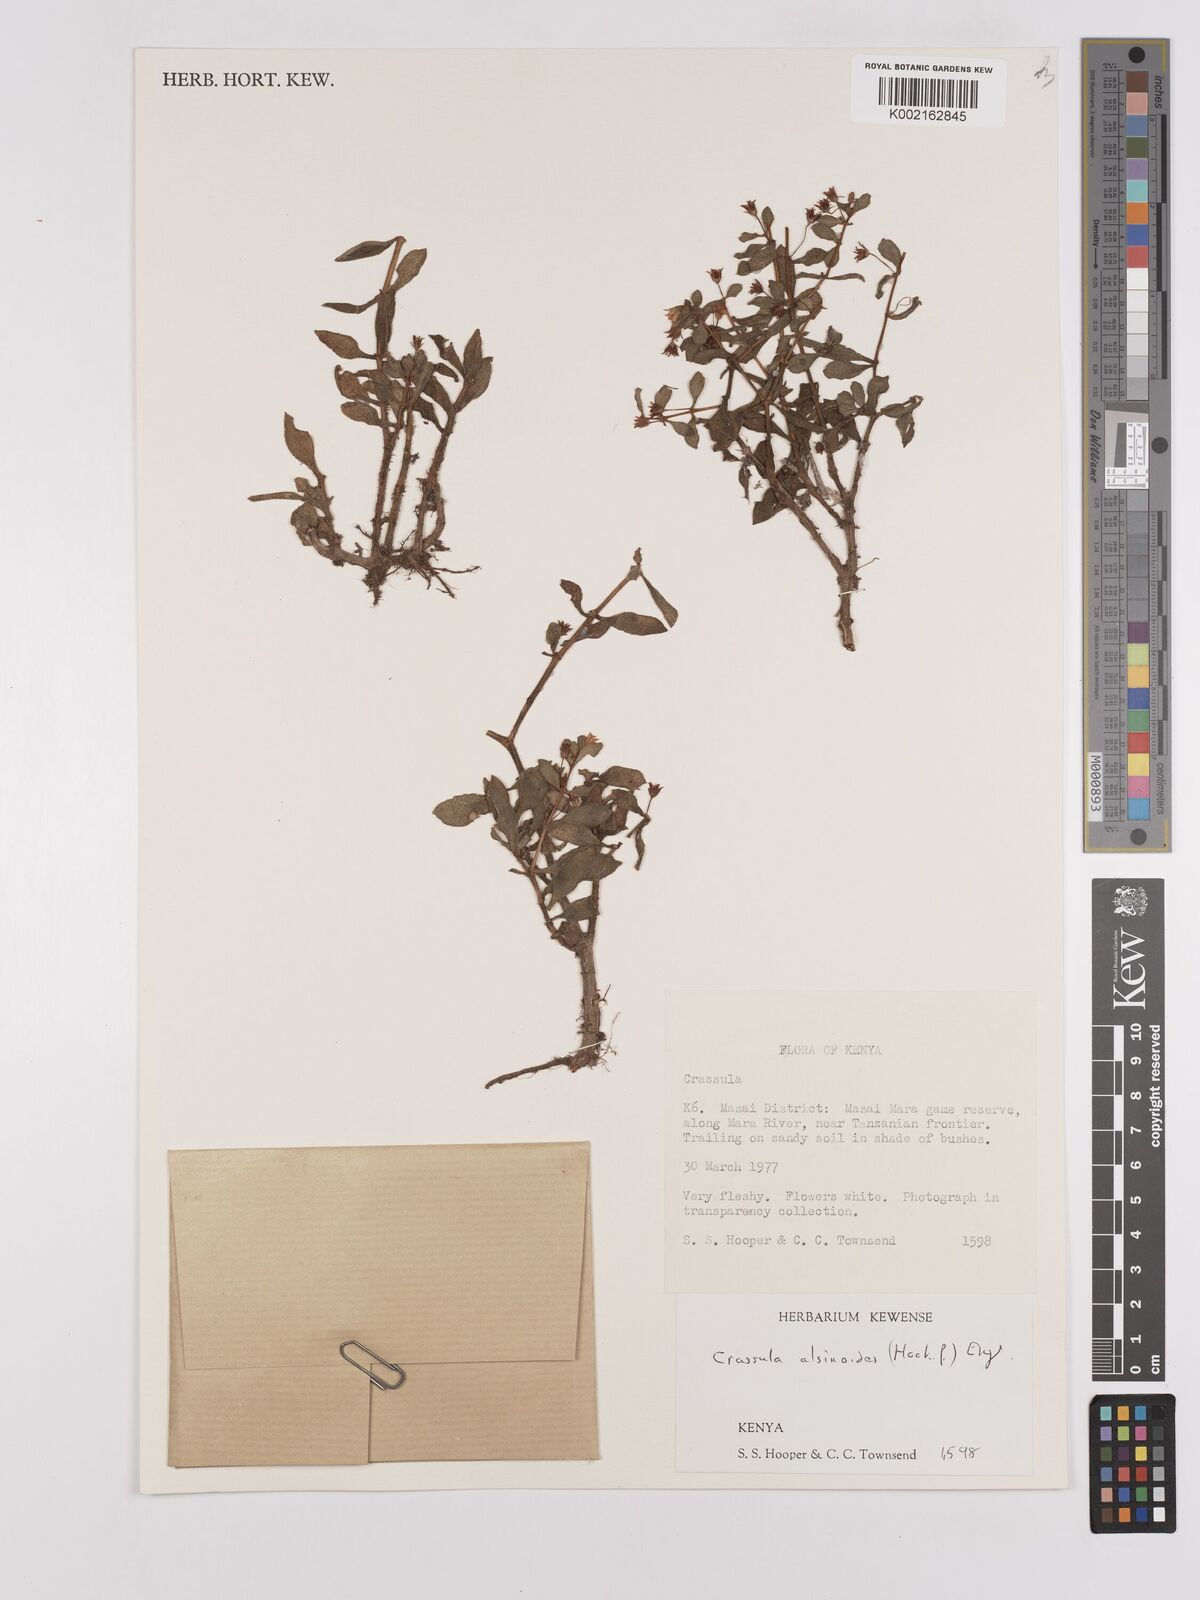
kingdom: Plantae
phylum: Tracheophyta
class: Magnoliopsida
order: Saxifragales
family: Crassulaceae
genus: Crassula
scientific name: Crassula volkensii
